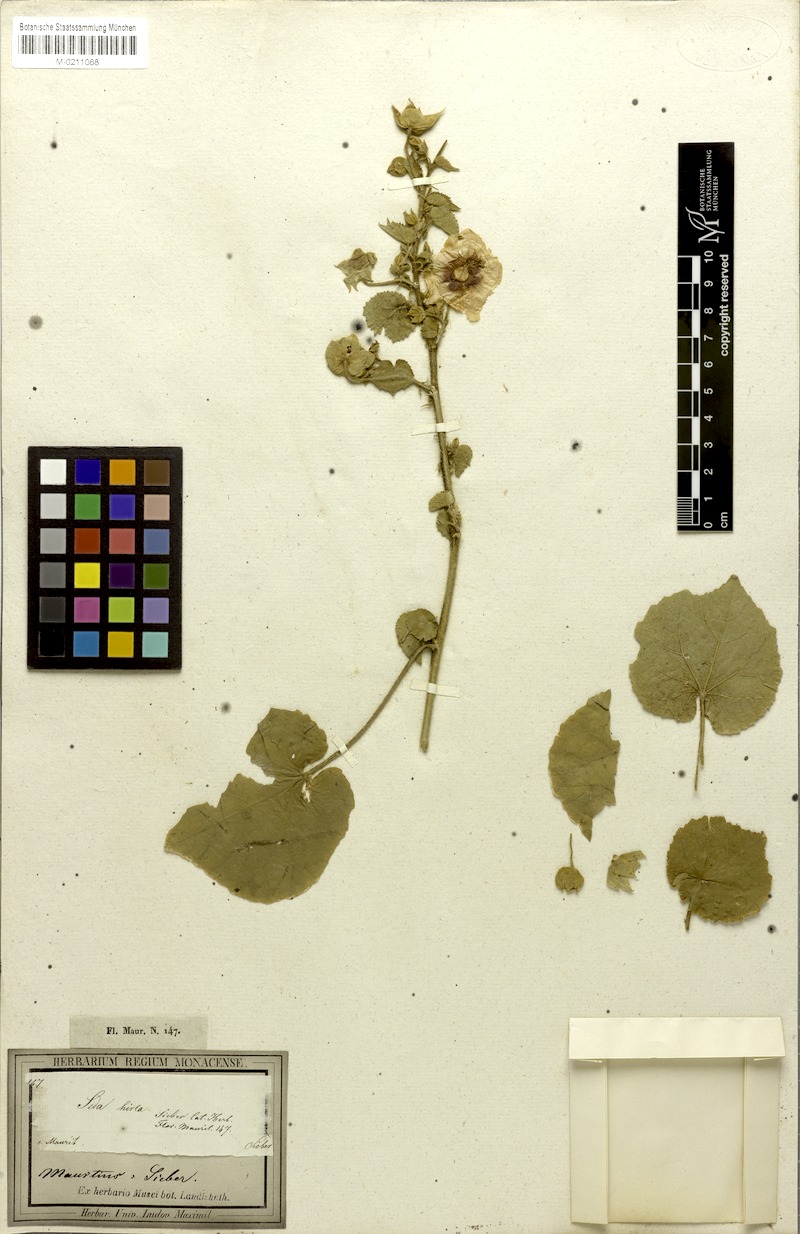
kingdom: Plantae
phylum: Tracheophyta
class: Magnoliopsida
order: Malvales
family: Malvaceae
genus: Abutilon
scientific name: Abutilon hirtum
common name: Florida keys indian mallow
